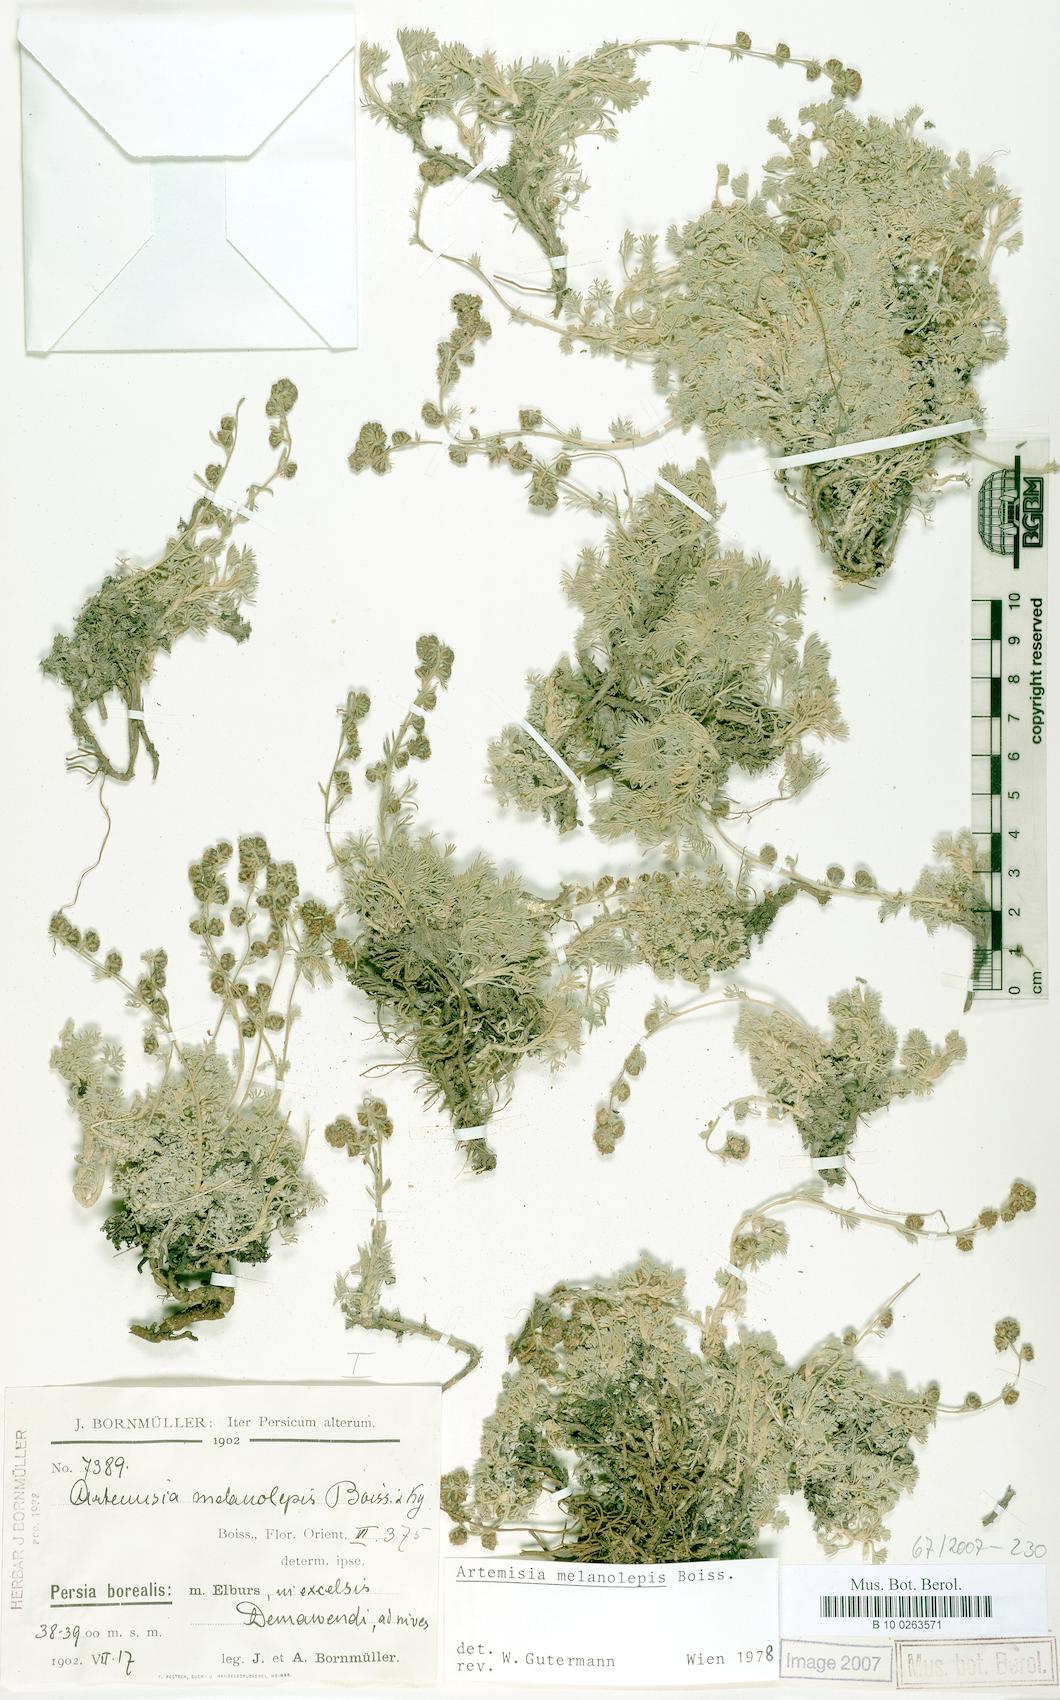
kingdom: Plantae
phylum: Tracheophyta
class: Magnoliopsida
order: Asterales
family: Asteraceae
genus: Artemisia
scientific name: Artemisia melanolepis
